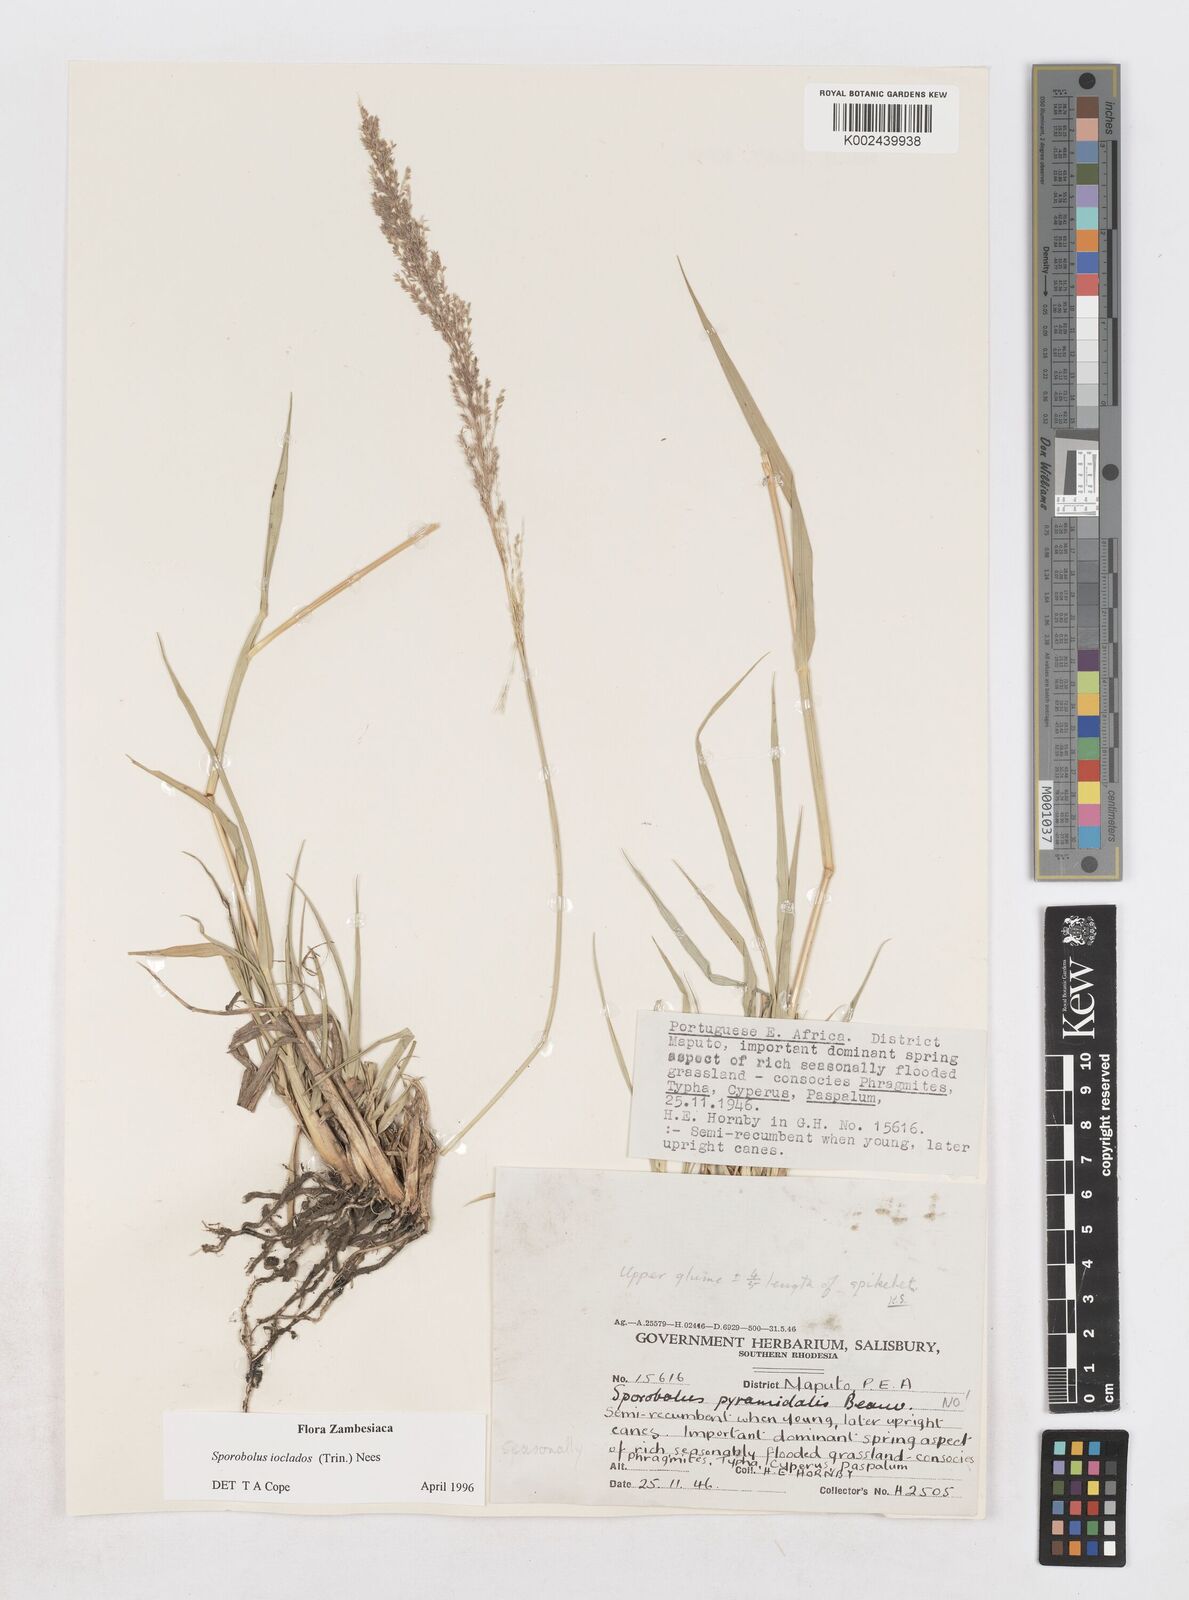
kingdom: Plantae
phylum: Tracheophyta
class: Liliopsida
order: Poales
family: Poaceae
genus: Sporobolus
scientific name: Sporobolus ioclados
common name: Pan dropseed
